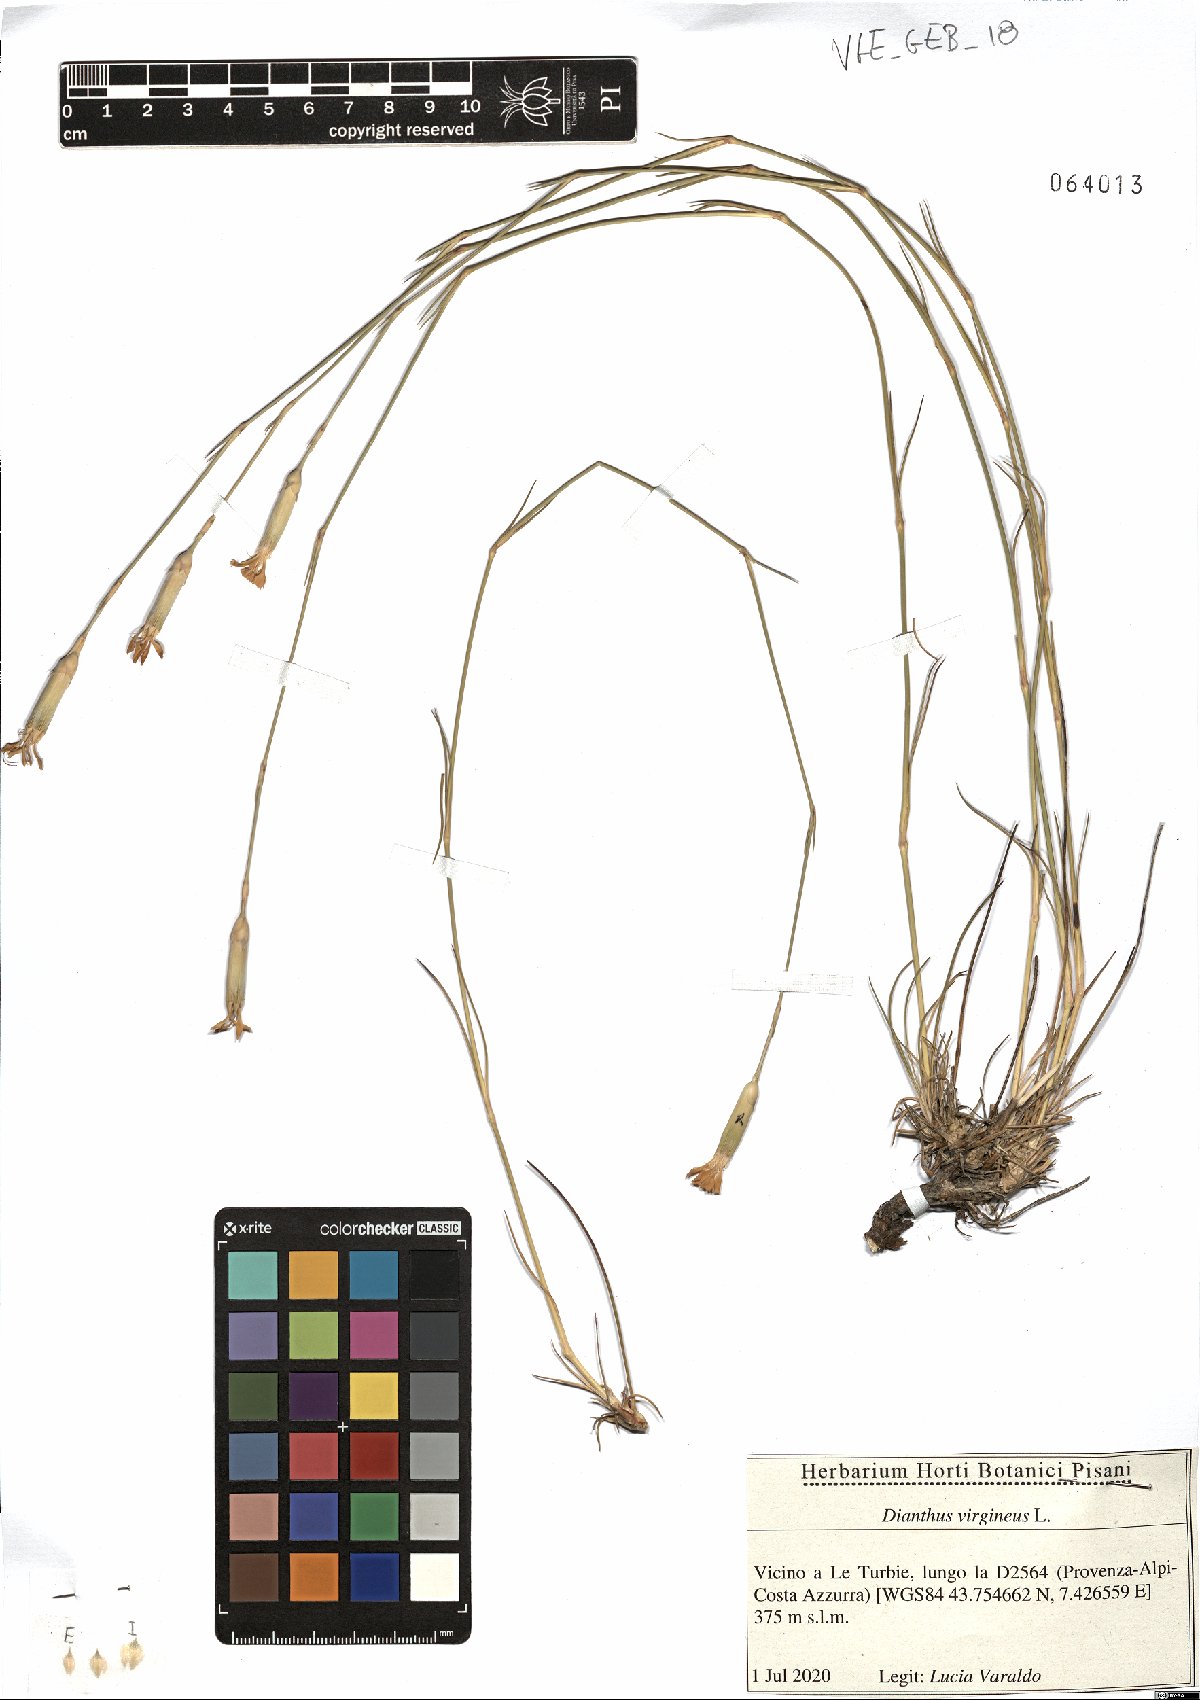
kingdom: Plantae
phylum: Tracheophyta
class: Magnoliopsida
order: Caryophyllales
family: Caryophyllaceae
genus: Dianthus
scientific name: Dianthus virgineus
